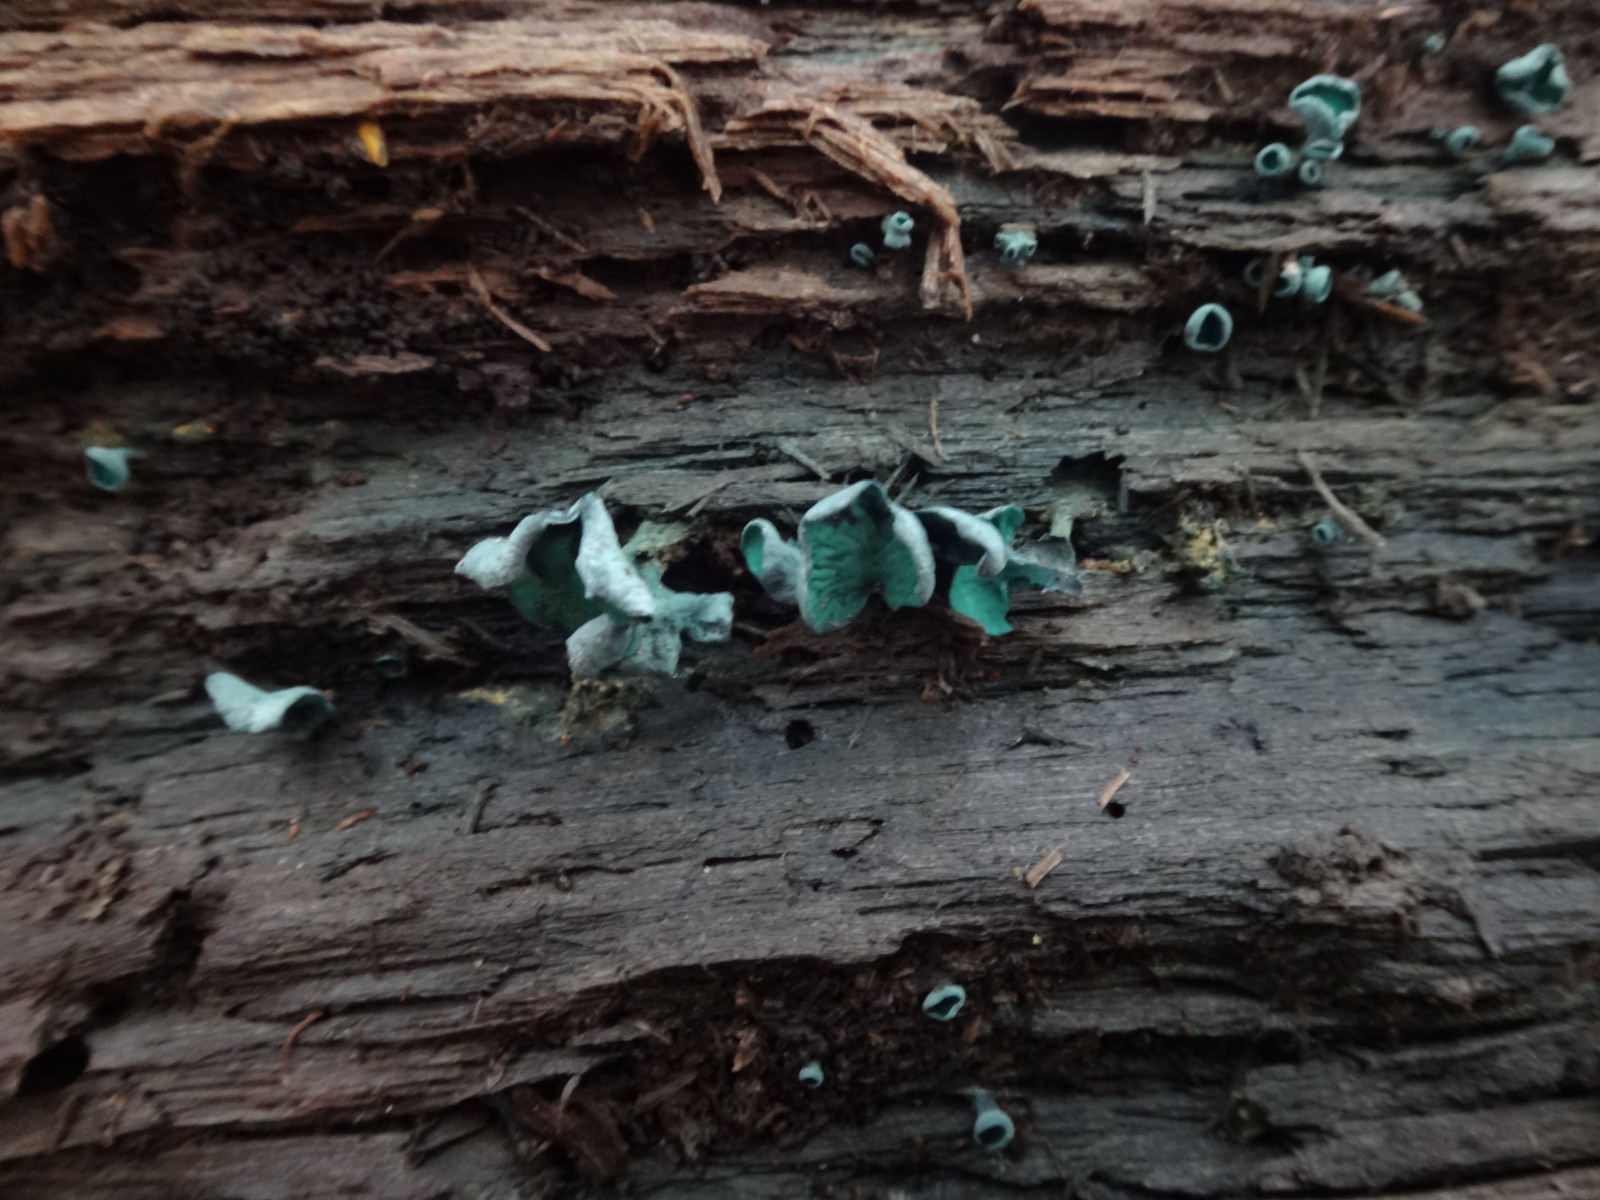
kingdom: Fungi
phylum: Ascomycota
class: Leotiomycetes
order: Helotiales
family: Chlorociboriaceae
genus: Chlorociboria
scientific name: Chlorociboria aeruginascens
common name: almindelig grønskive
